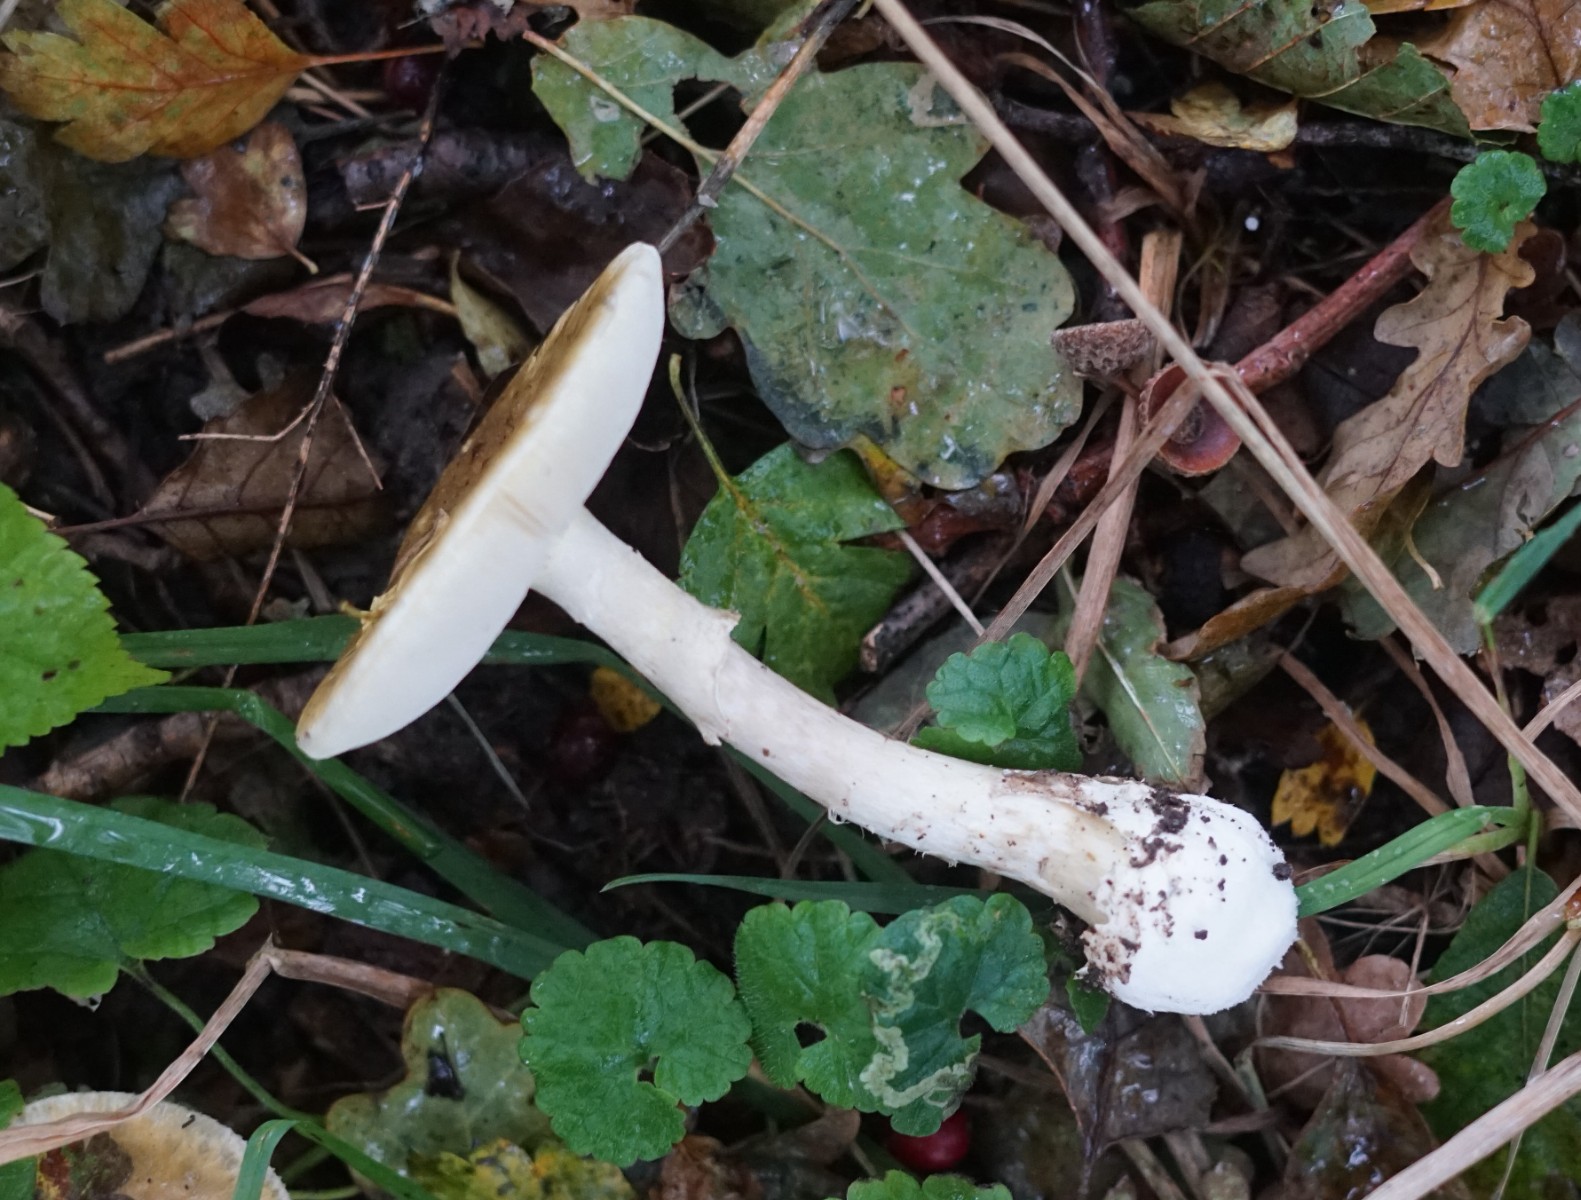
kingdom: Fungi
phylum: Basidiomycota
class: Agaricomycetes
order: Agaricales
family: Amanitaceae
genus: Amanita
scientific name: Amanita phalloides
